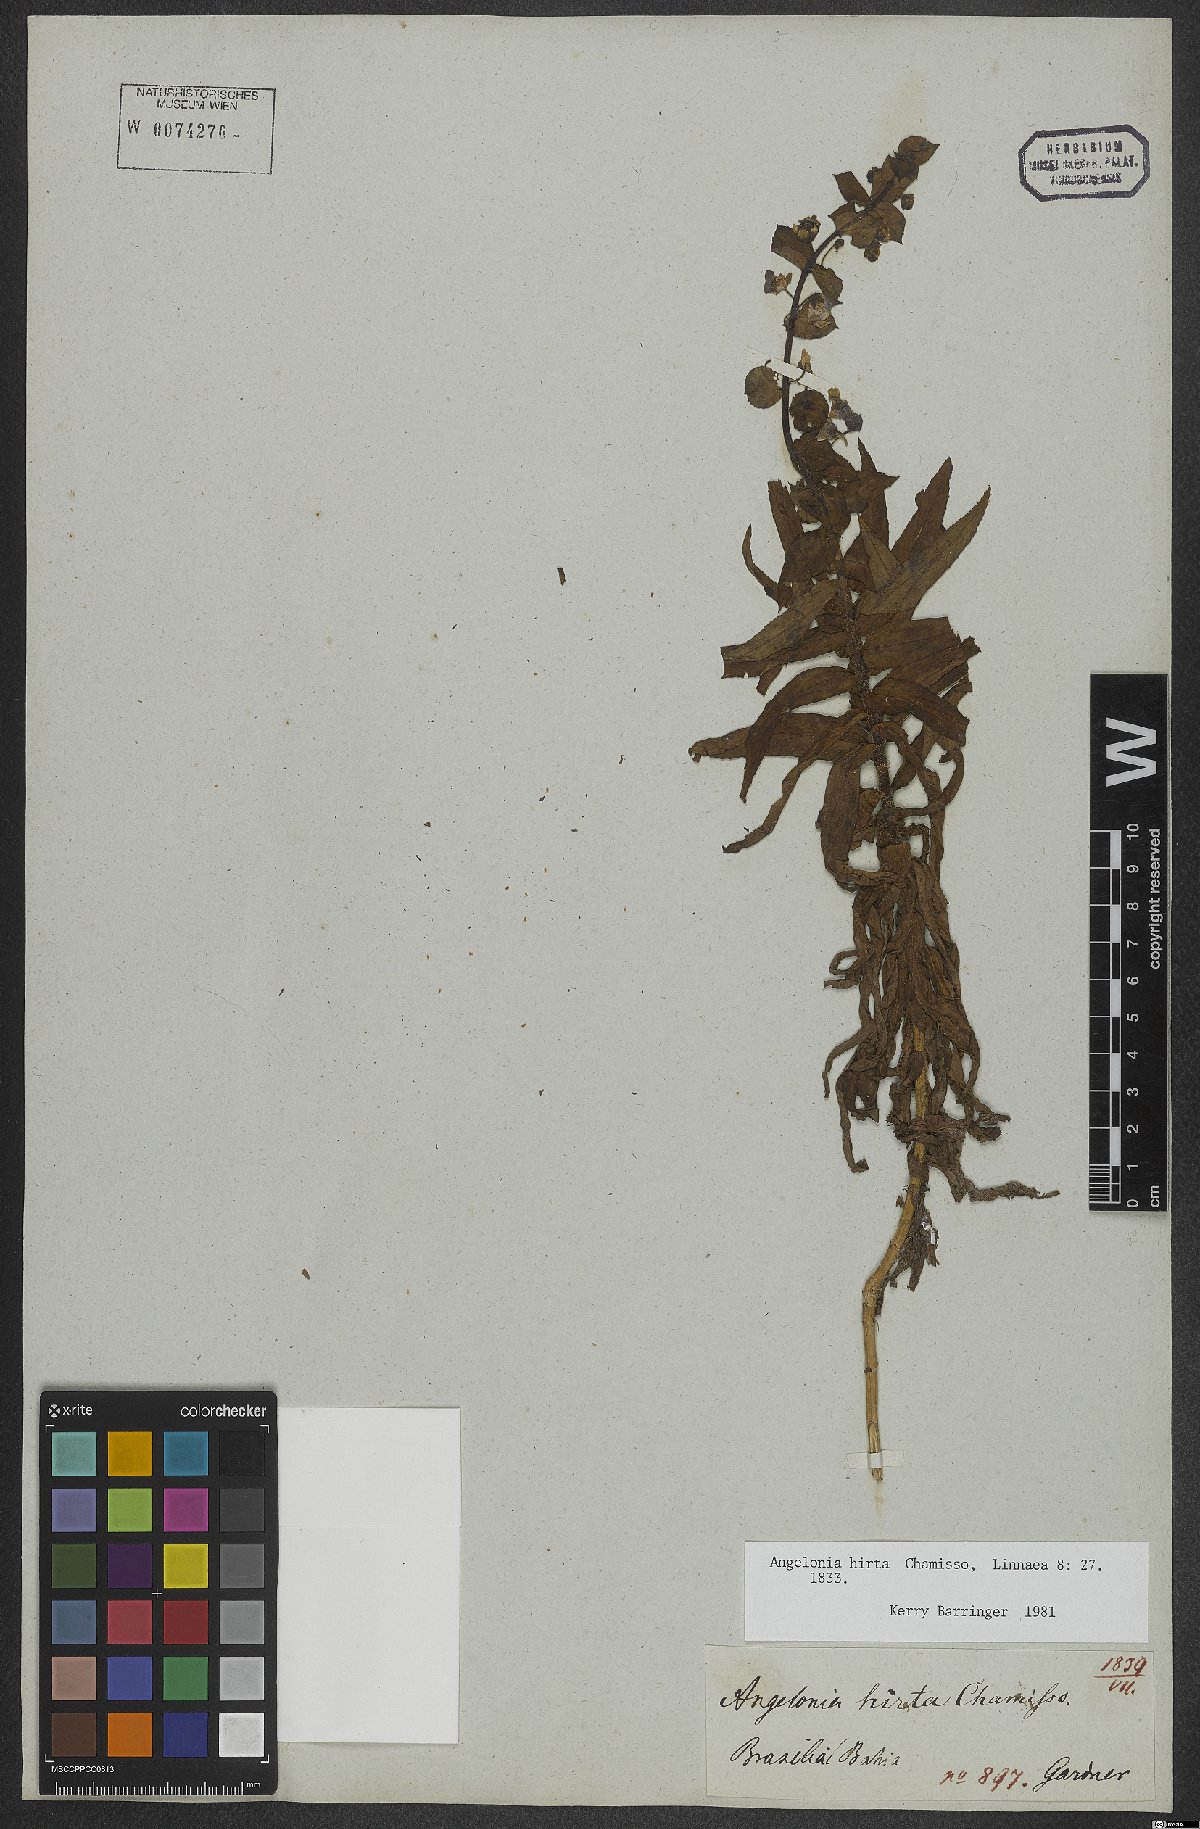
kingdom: Plantae
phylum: Tracheophyta
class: Magnoliopsida
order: Lamiales
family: Plantaginaceae
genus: Angelonia
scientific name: Angelonia salicariifolia
